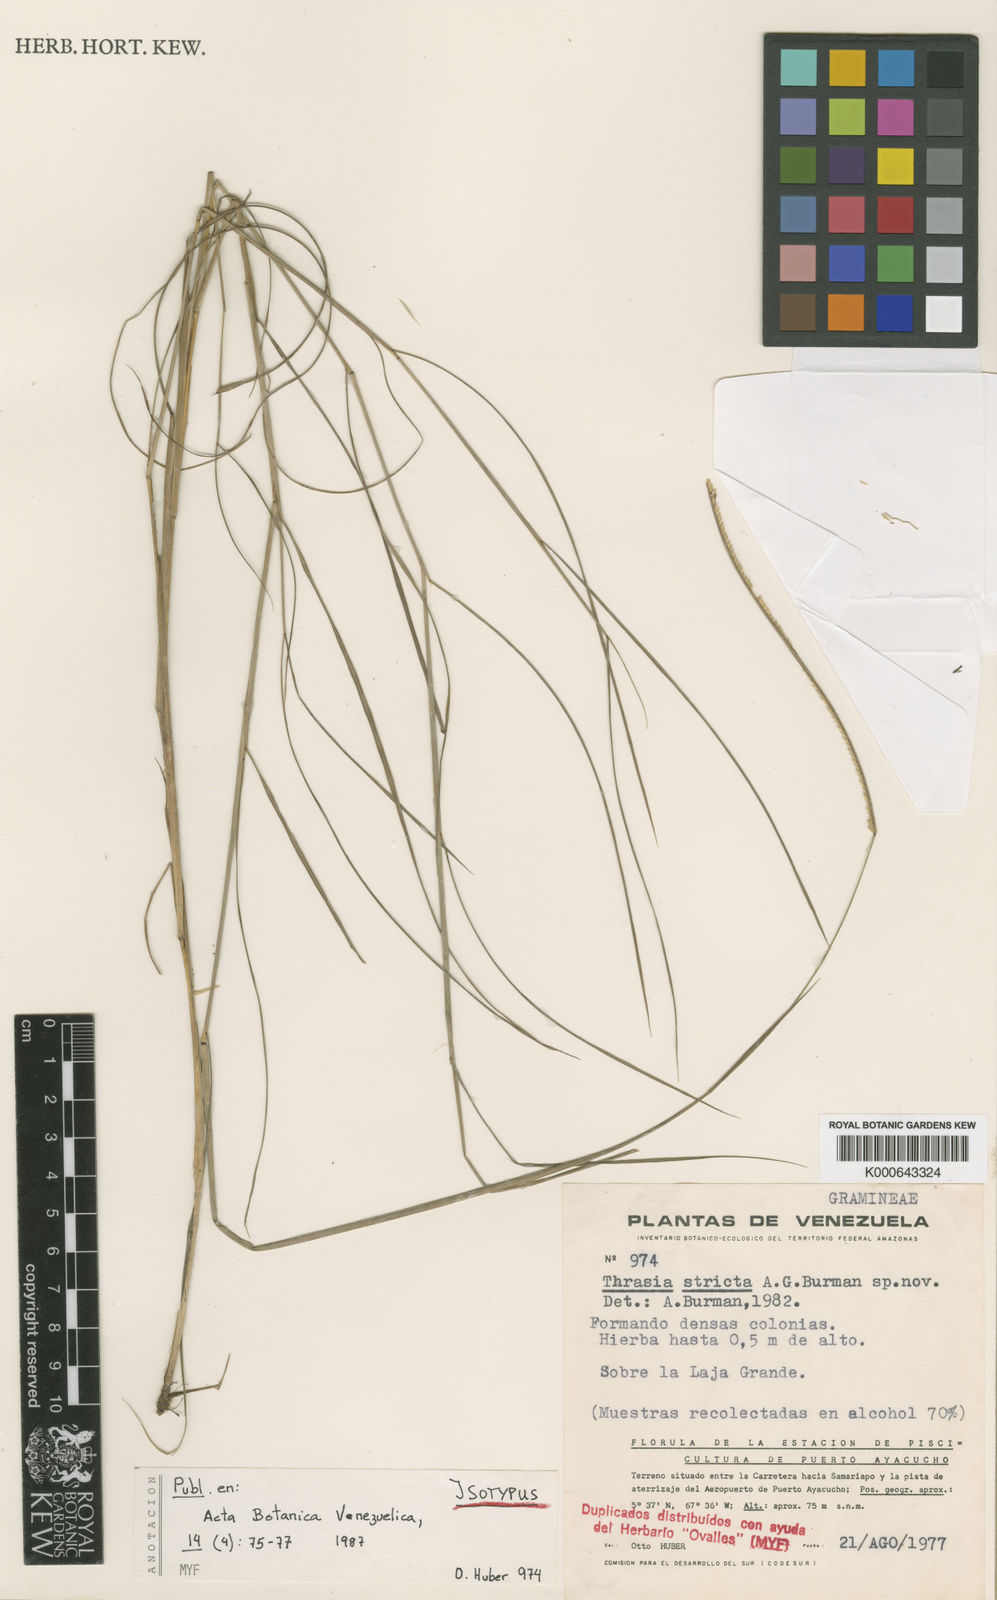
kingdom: Plantae
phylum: Tracheophyta
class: Liliopsida
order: Poales
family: Poaceae
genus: Paspalum
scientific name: Paspalum huberi
